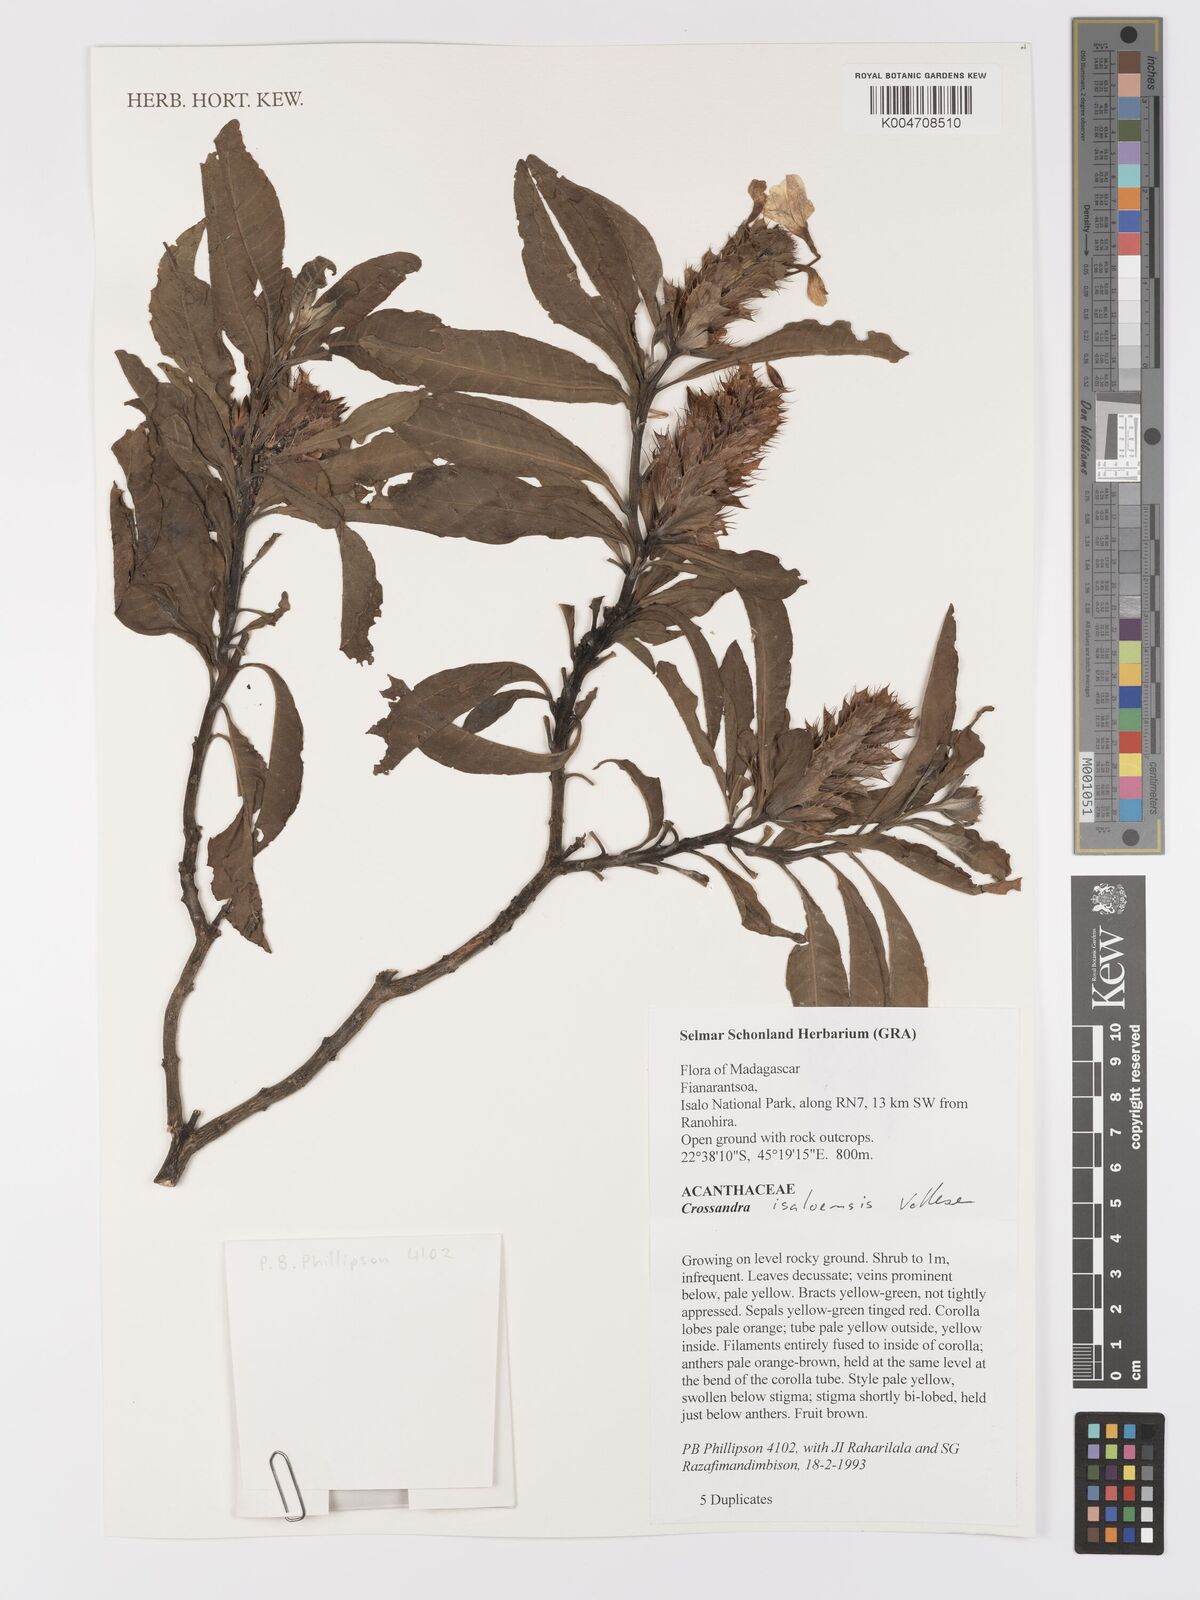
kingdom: Plantae
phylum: Tracheophyta
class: Magnoliopsida
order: Lamiales
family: Acanthaceae
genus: Crossandra
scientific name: Crossandra isaloensis
